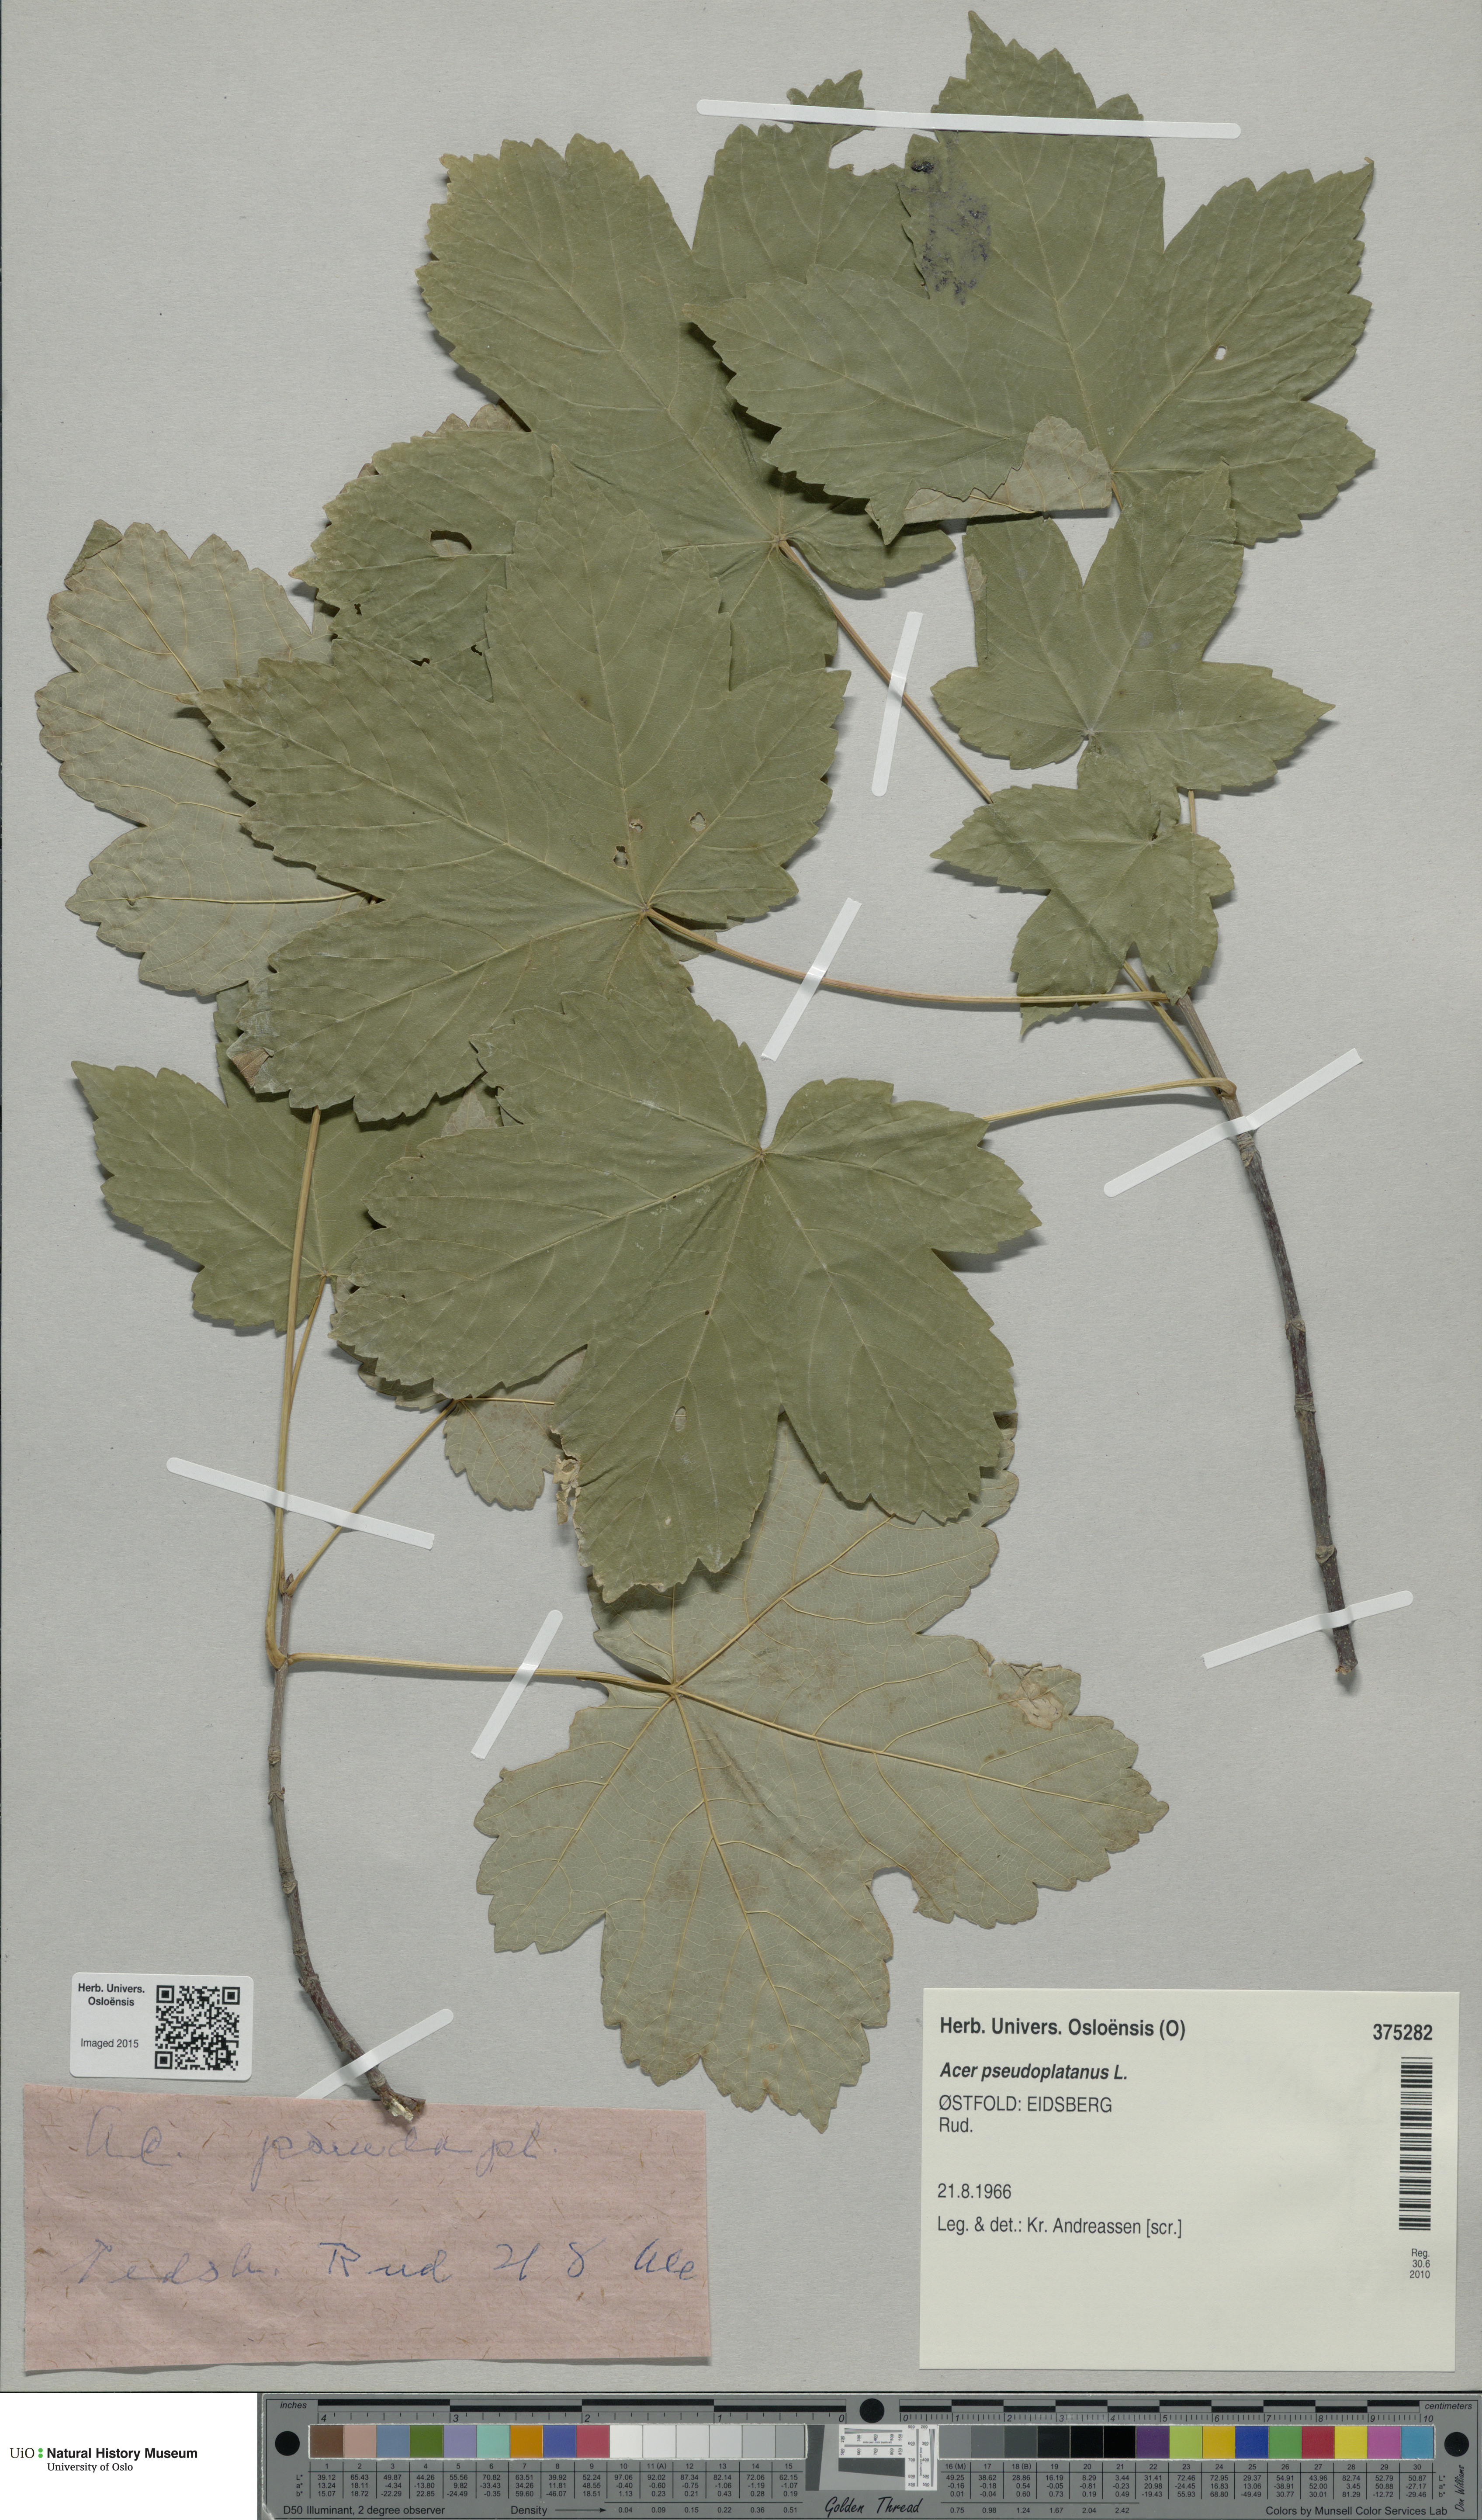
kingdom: Plantae
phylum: Tracheophyta
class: Magnoliopsida
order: Sapindales
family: Sapindaceae
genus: Acer
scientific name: Acer pseudoplatanus
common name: Sycamore
